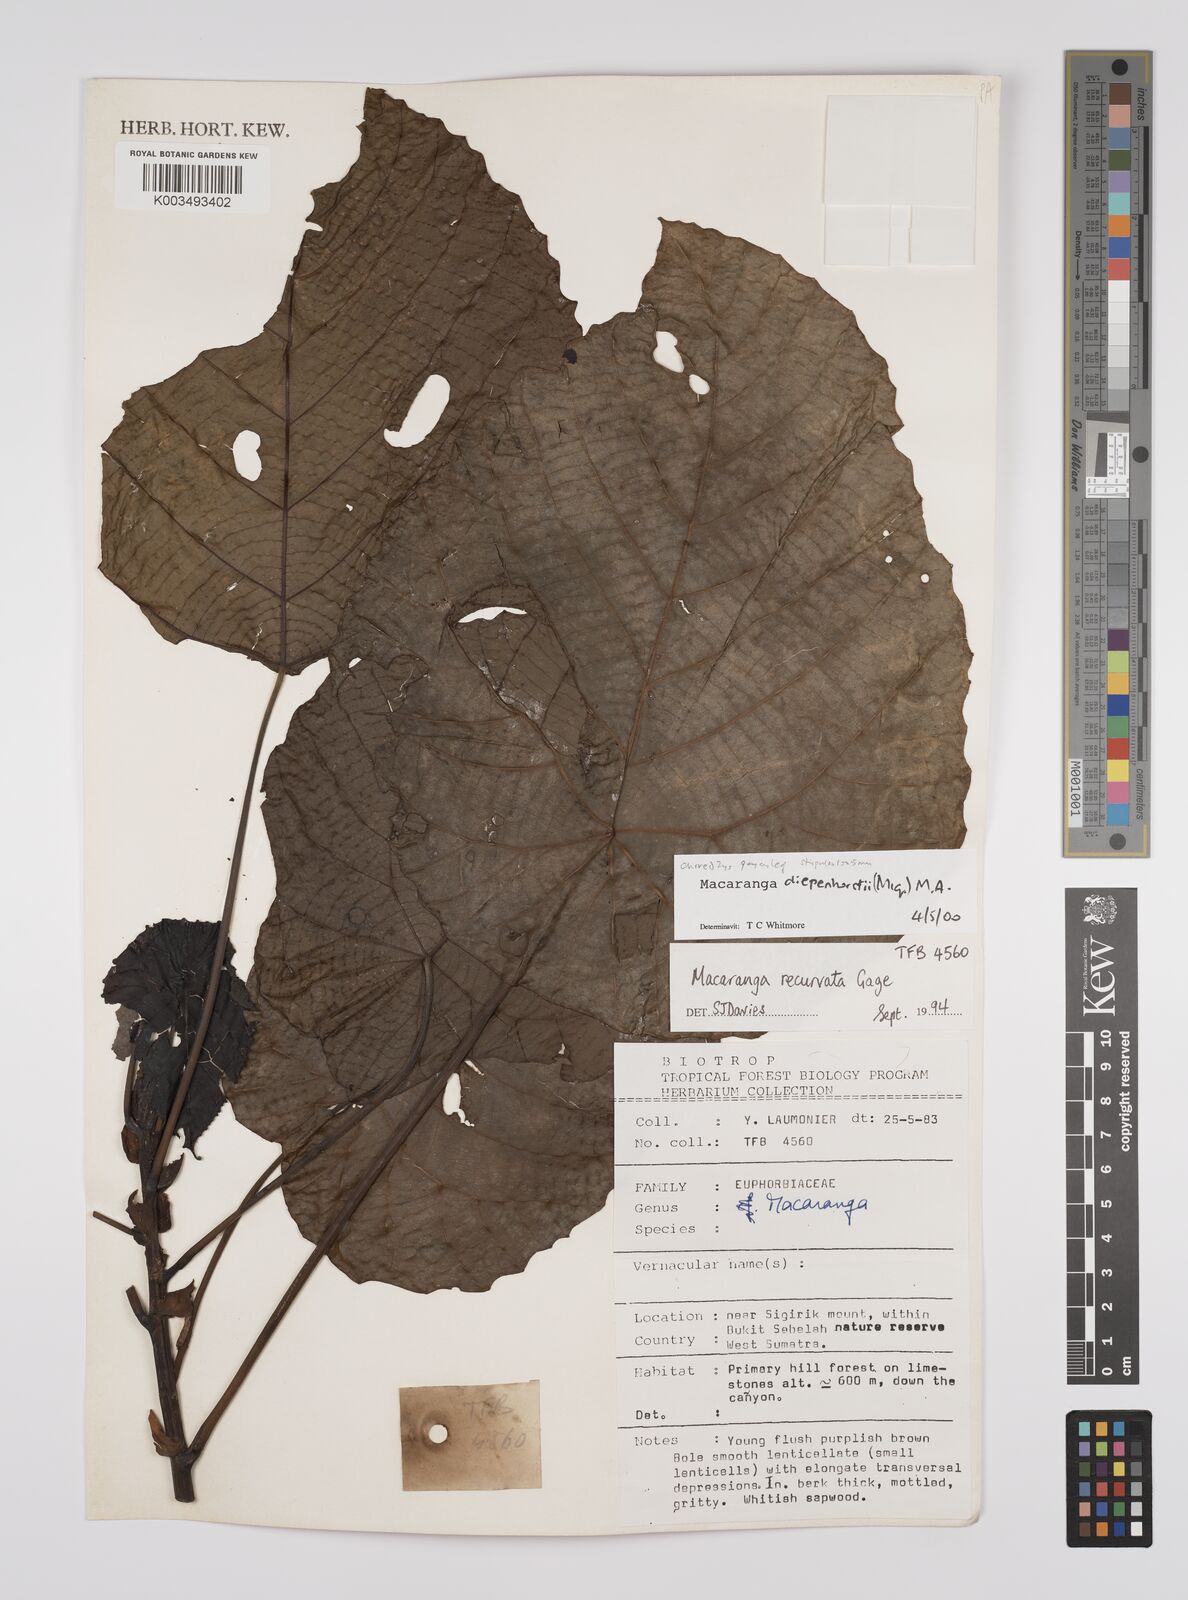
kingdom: Plantae
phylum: Tracheophyta
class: Magnoliopsida
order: Malpighiales
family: Euphorbiaceae
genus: Macaranga
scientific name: Macaranga diepenhorstii
